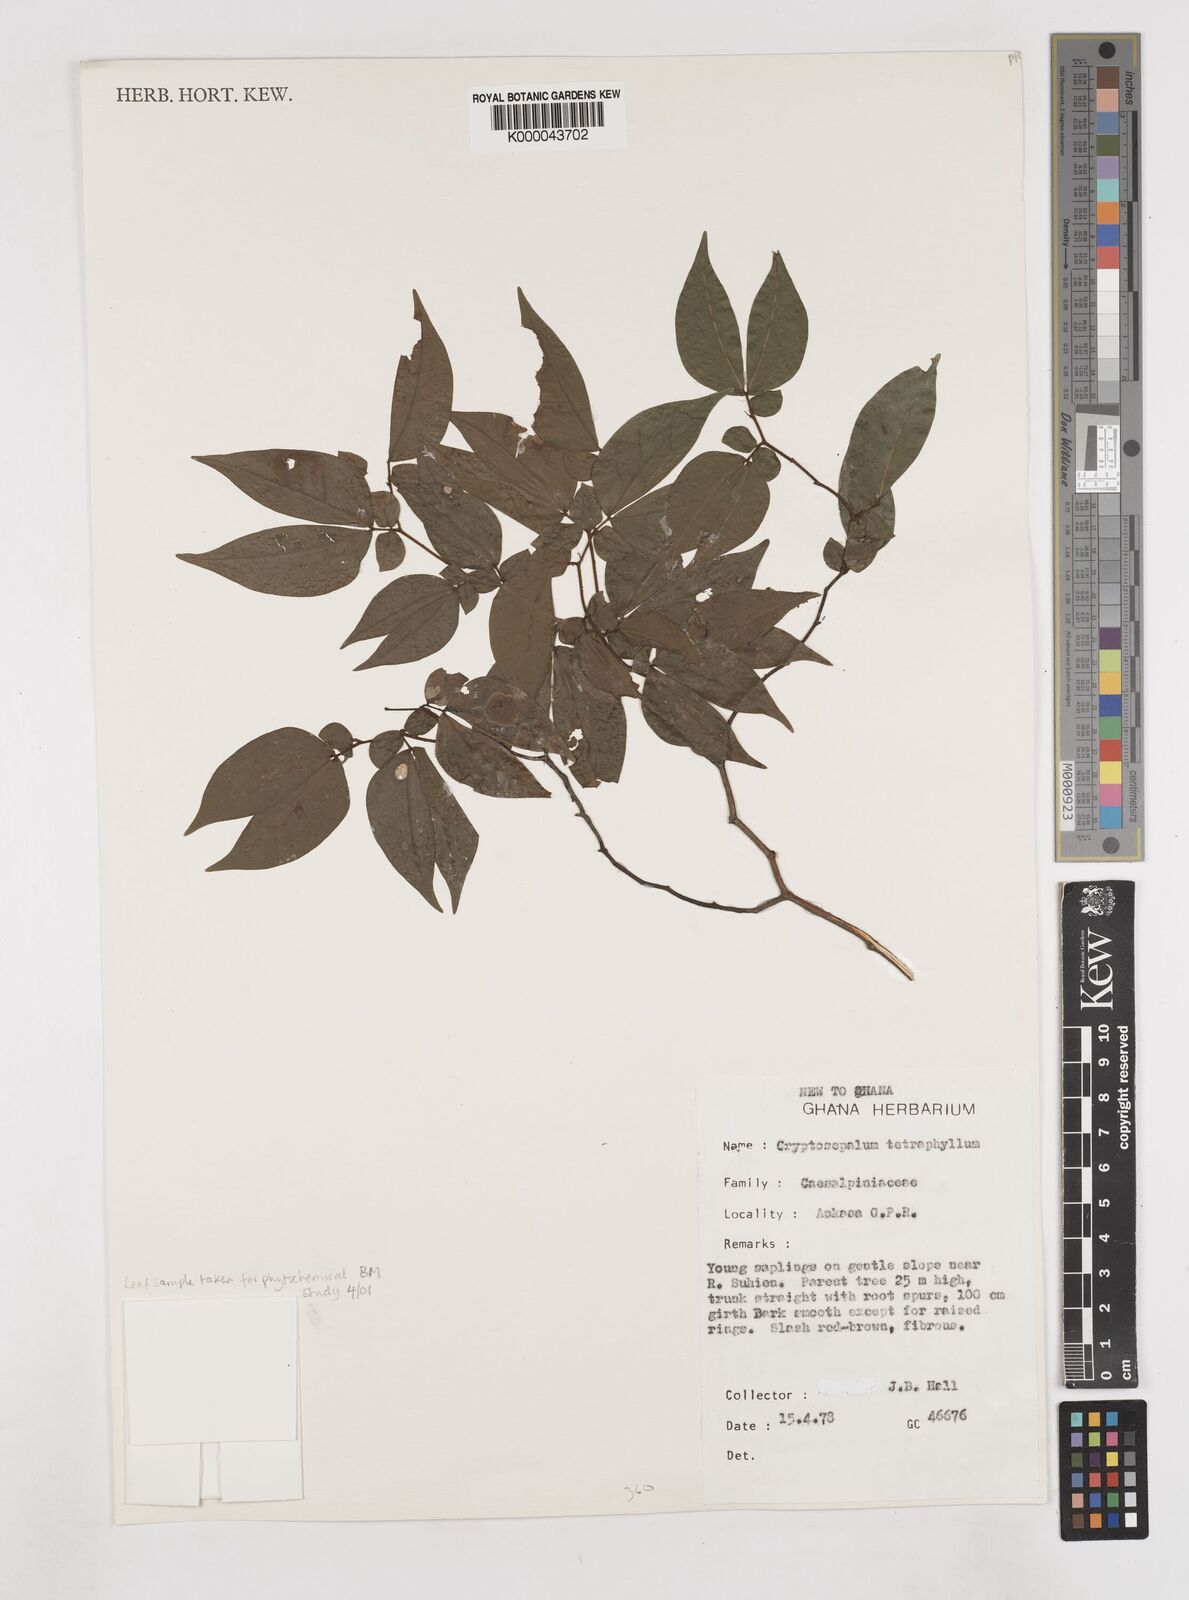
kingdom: Plantae
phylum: Tracheophyta
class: Magnoliopsida
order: Fabales
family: Fabaceae
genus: Cryptosepalum
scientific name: Cryptosepalum tetraphyllum
